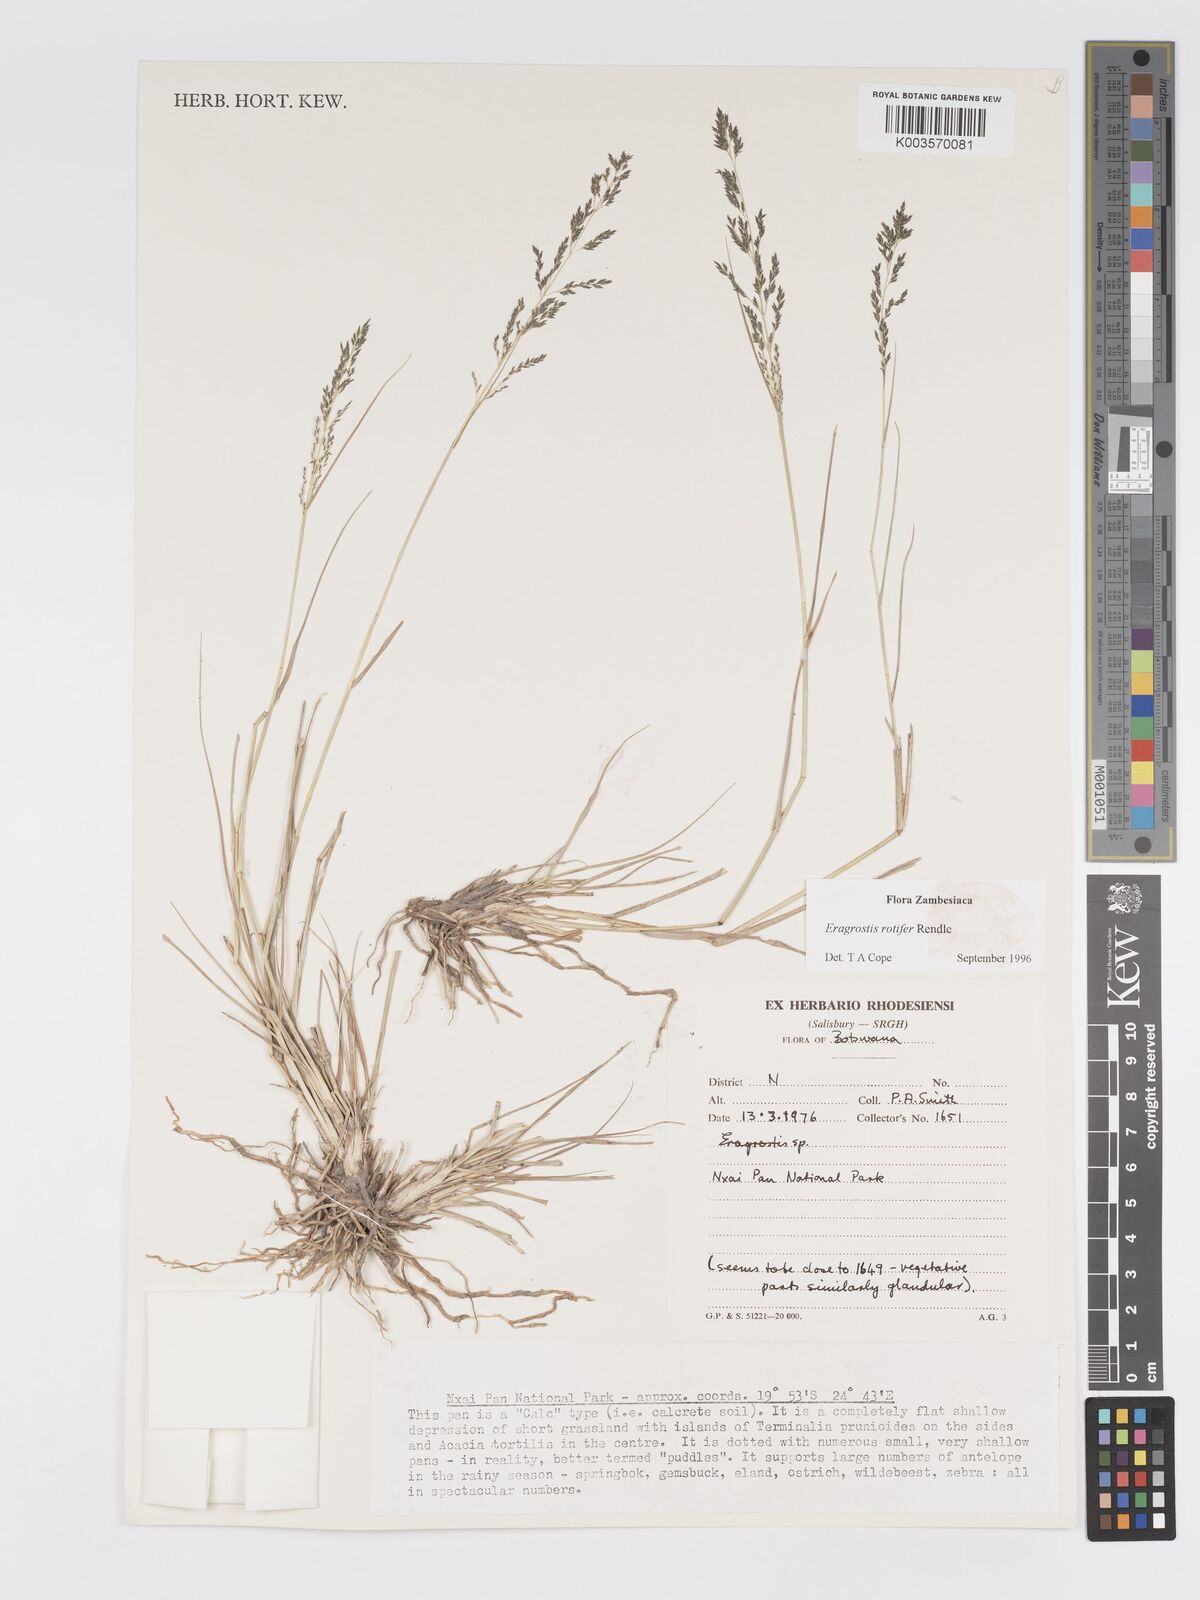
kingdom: Plantae
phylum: Tracheophyta
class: Liliopsida
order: Poales
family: Poaceae
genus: Eragrostis
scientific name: Eragrostis rotifer
